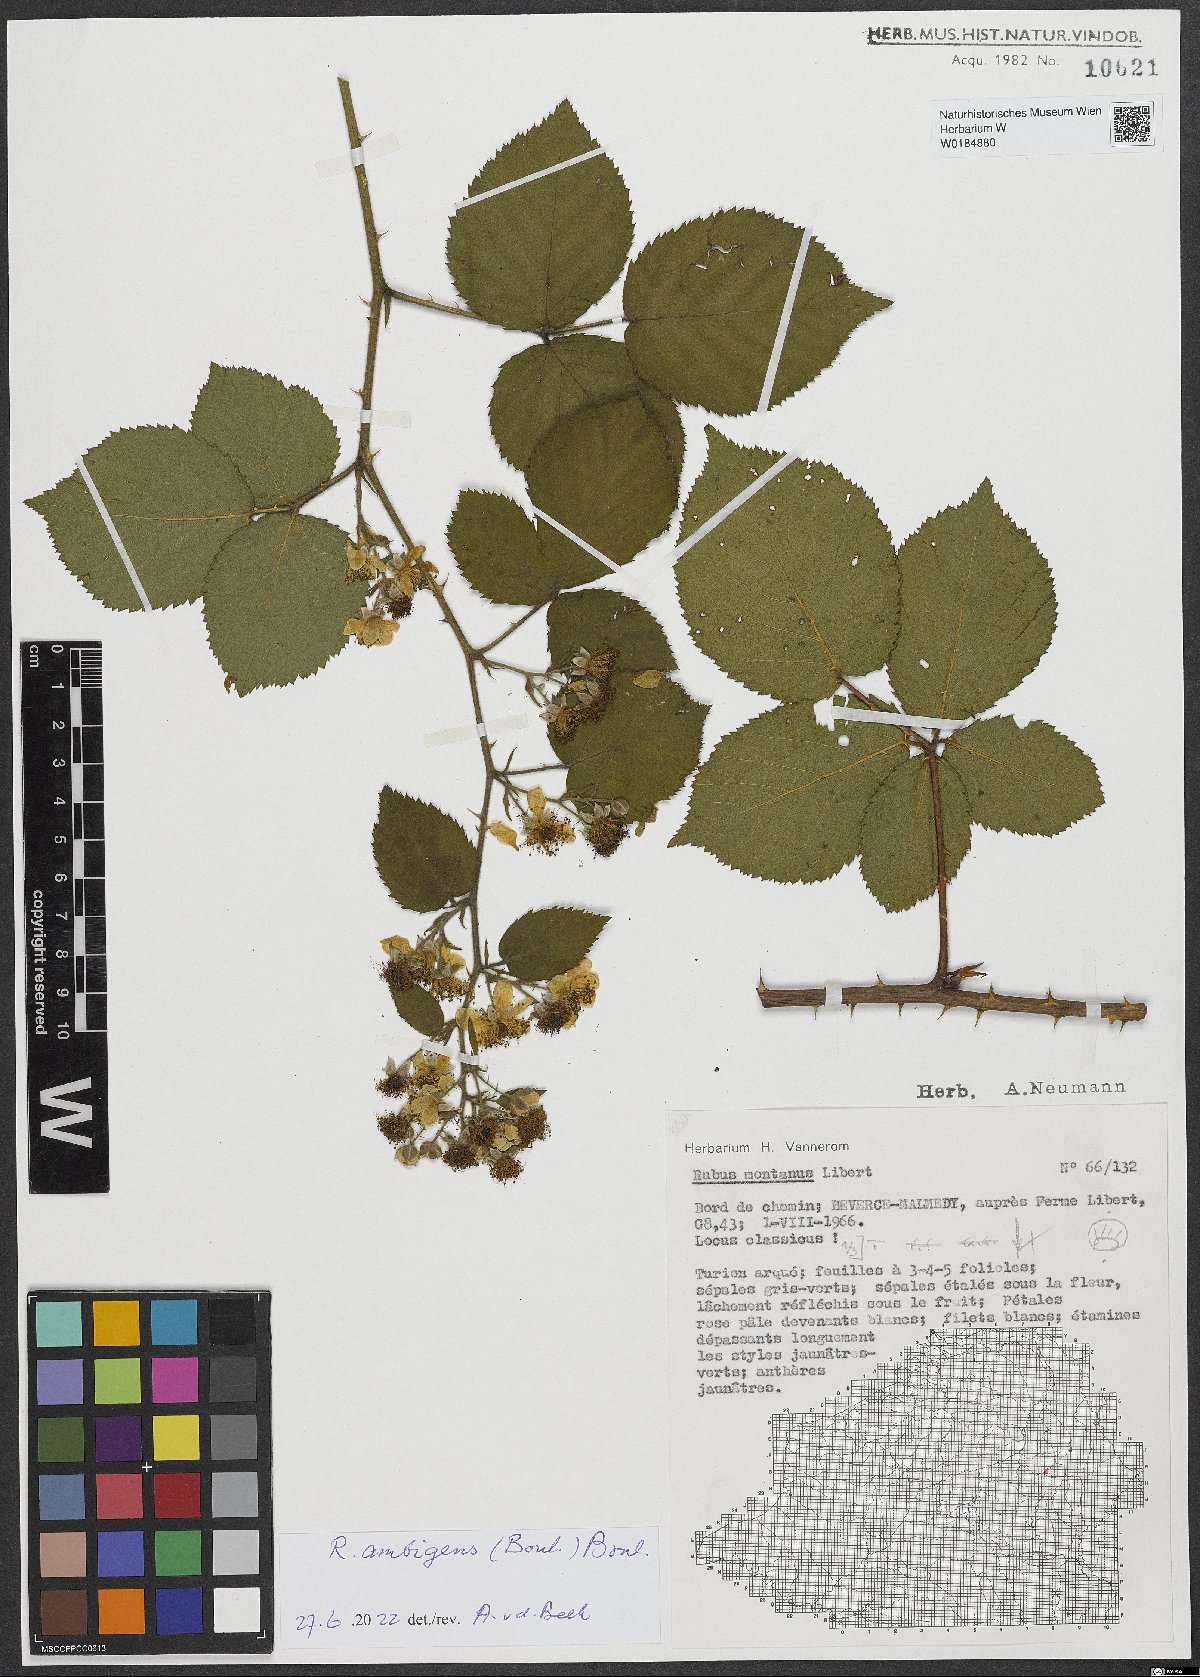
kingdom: Plantae
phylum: Tracheophyta
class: Magnoliopsida
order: Rosales
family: Rosaceae
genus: Rubus
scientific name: Rubus ambigens
